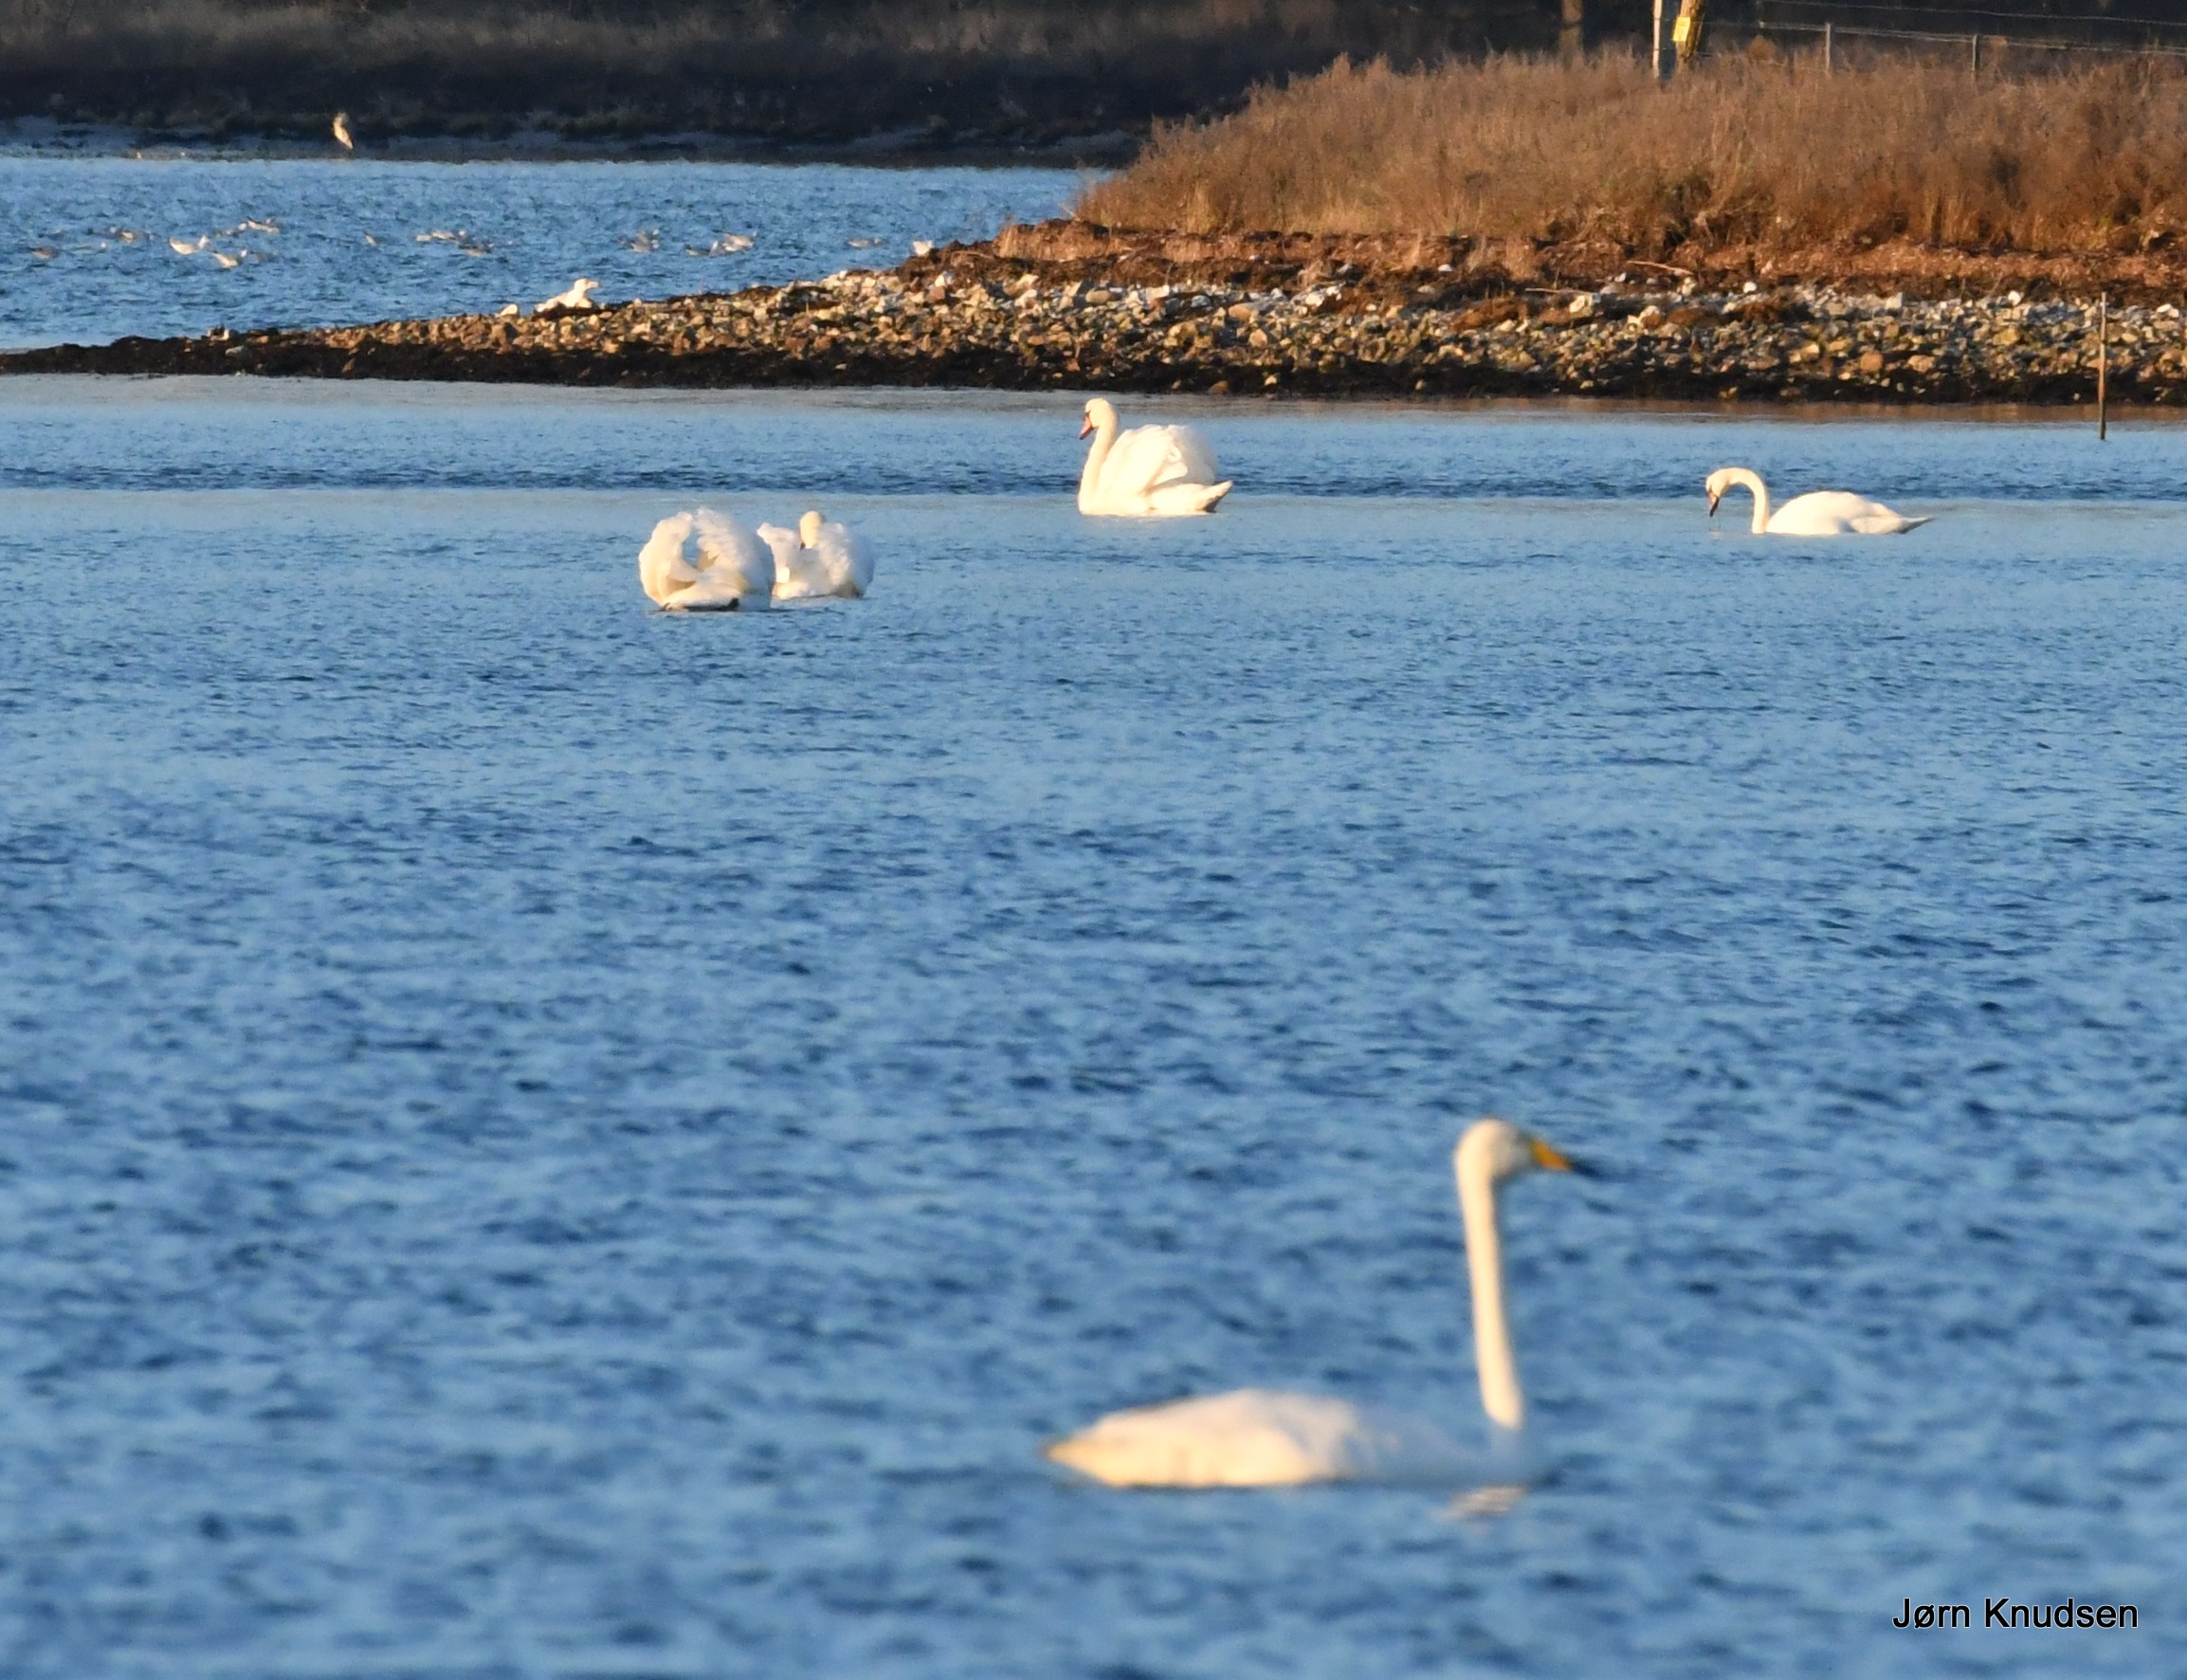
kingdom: Animalia
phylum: Chordata
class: Aves
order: Anseriformes
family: Anatidae
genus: Cygnus
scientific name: Cygnus cygnus
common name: Sangsvane
